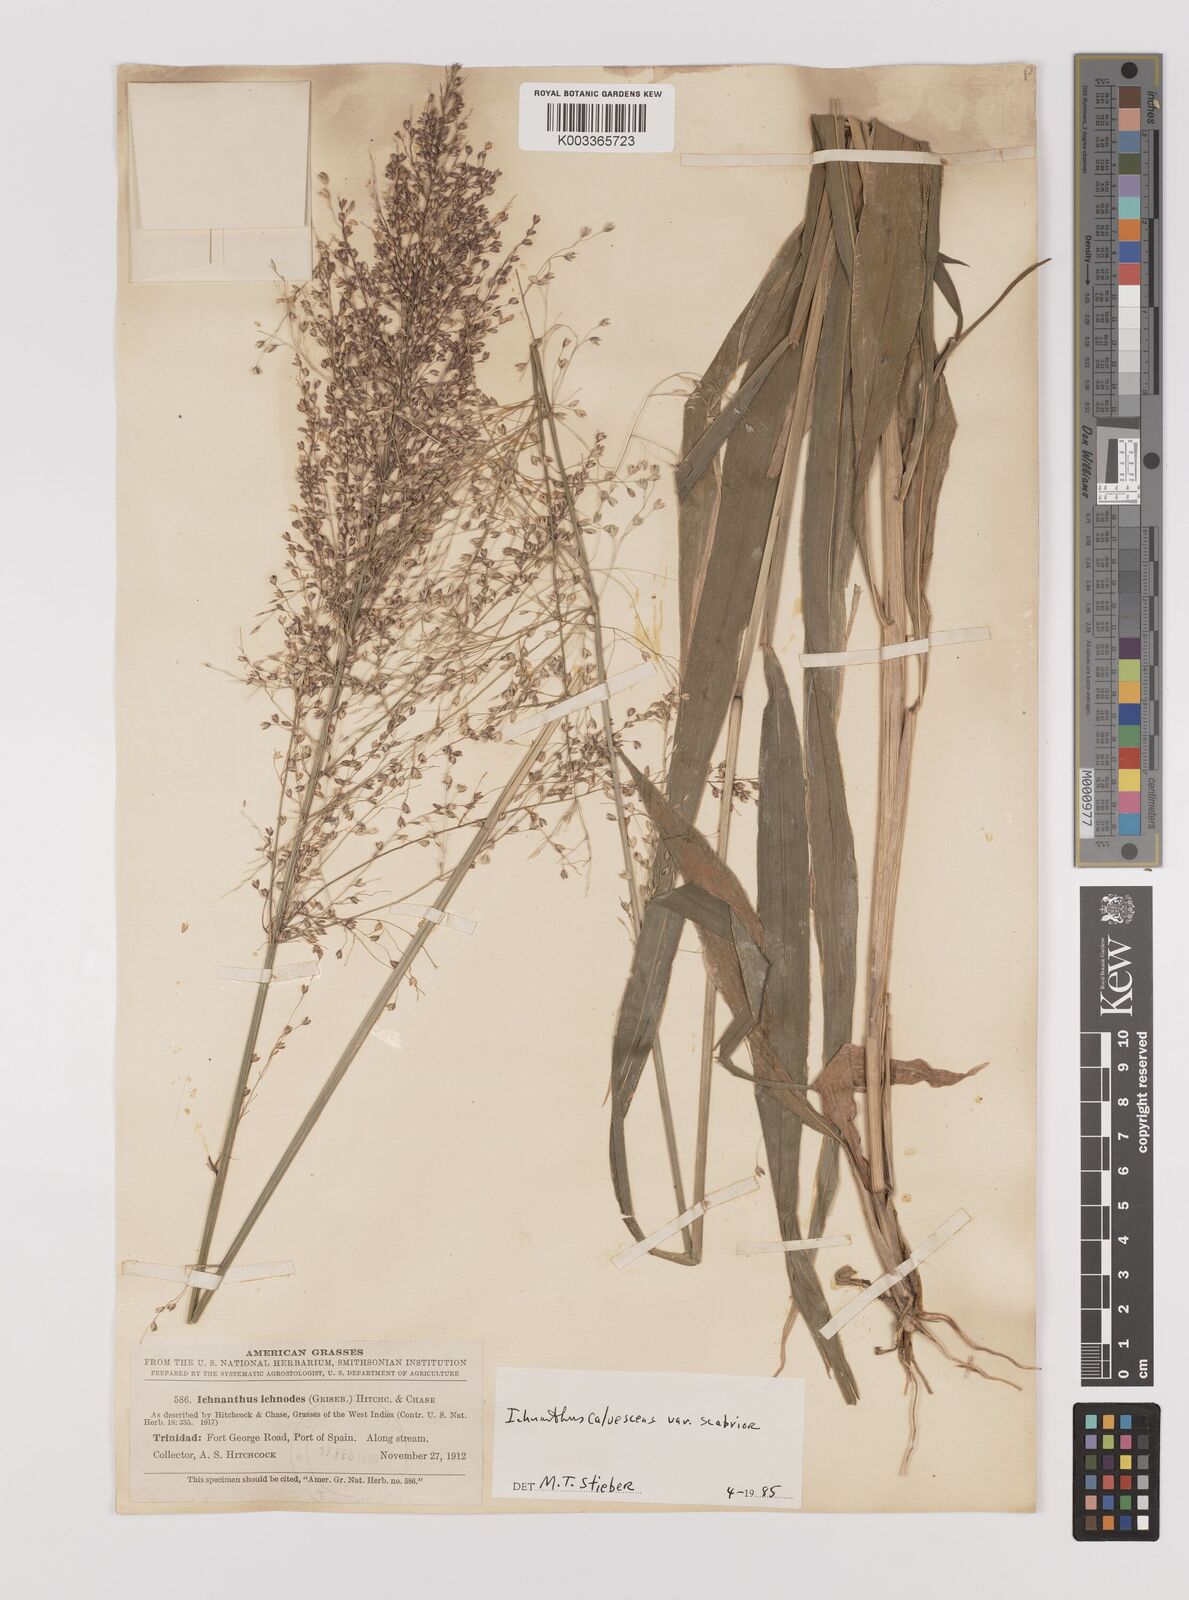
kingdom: Plantae
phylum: Tracheophyta
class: Liliopsida
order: Poales
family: Poaceae
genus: Ichnanthus
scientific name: Ichnanthus calvescens
